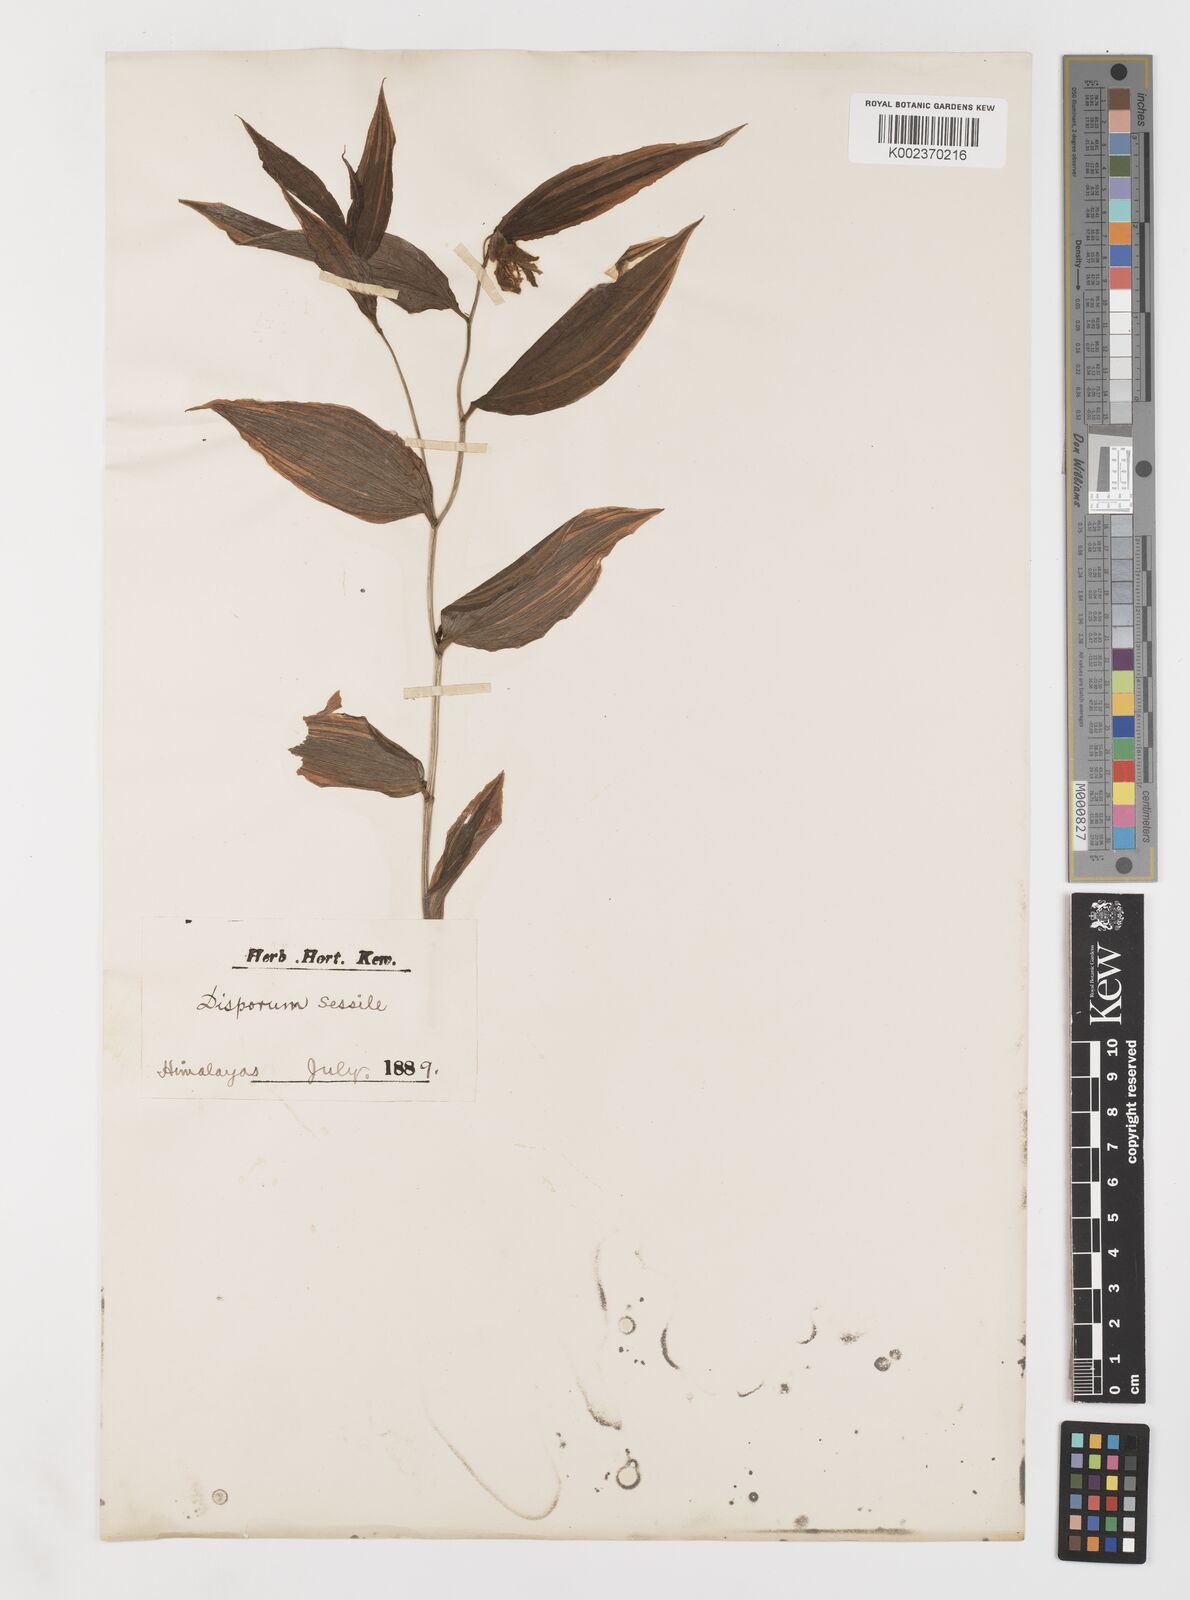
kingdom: Plantae
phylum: Tracheophyta
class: Liliopsida
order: Liliales
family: Colchicaceae
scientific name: Colchicaceae
